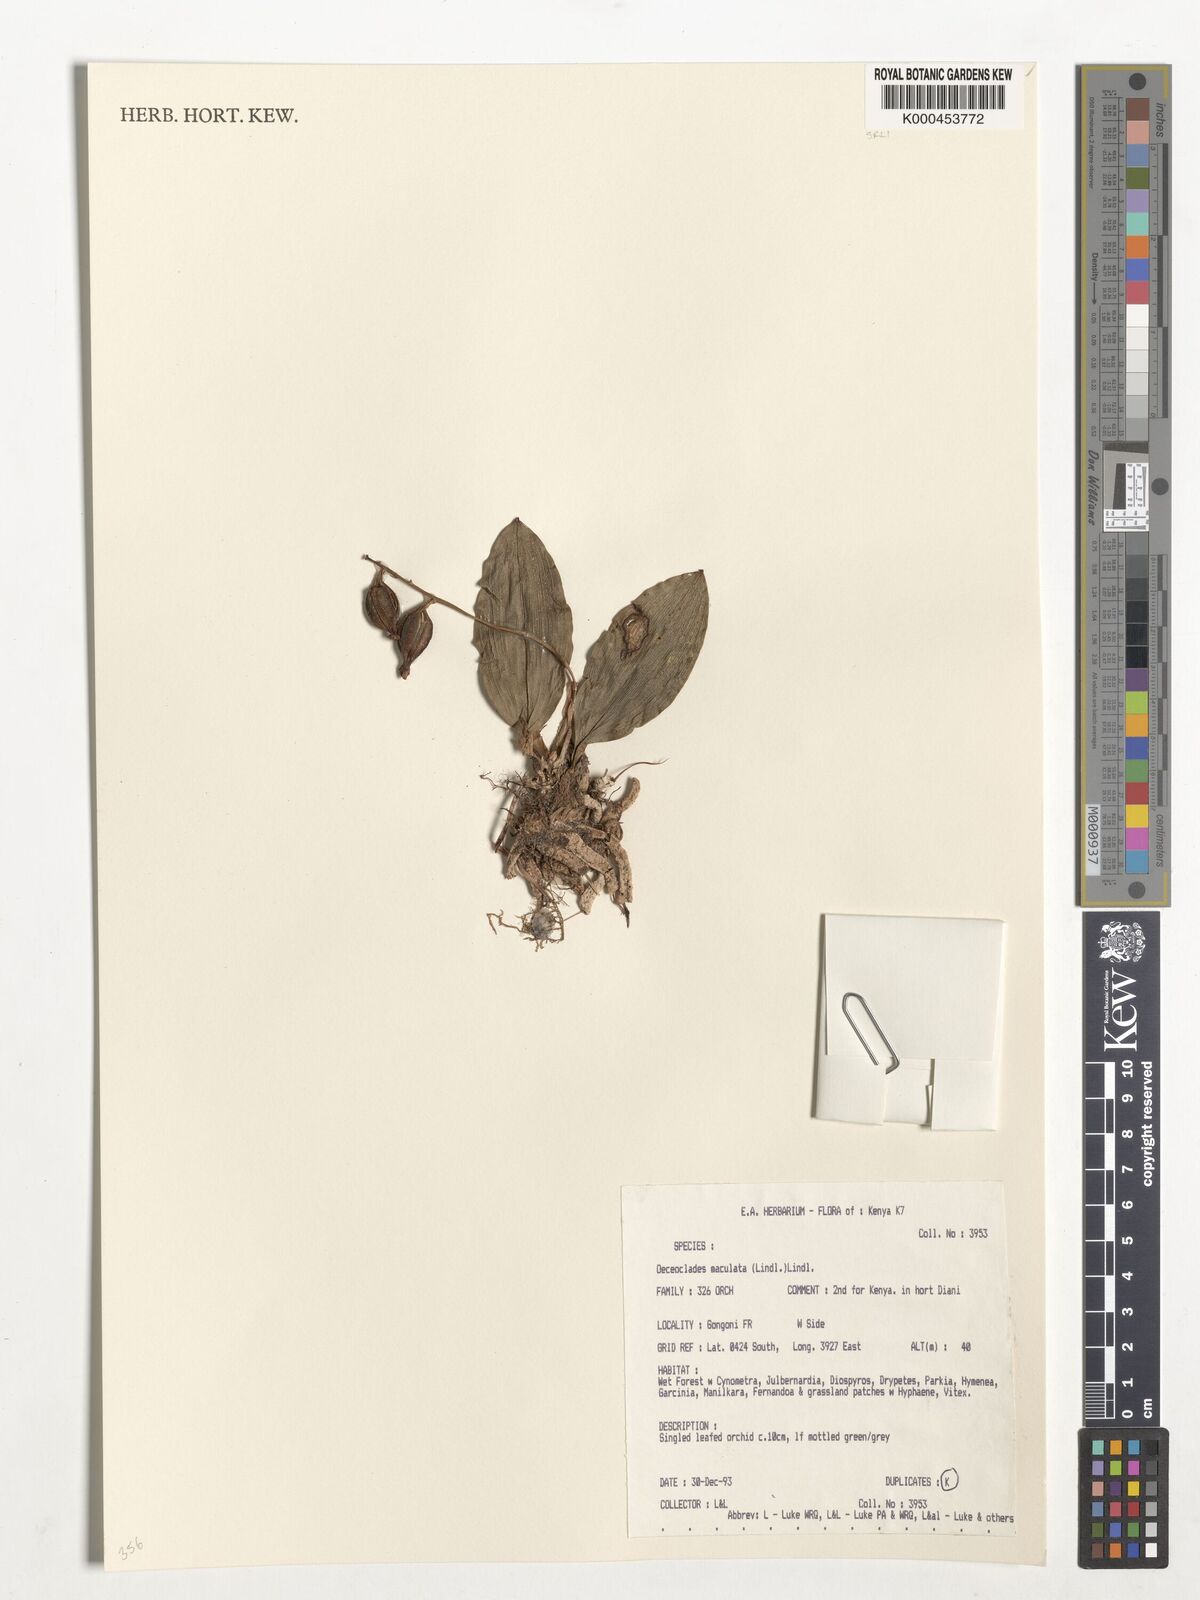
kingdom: Plantae
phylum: Tracheophyta
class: Liliopsida
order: Asparagales
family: Orchidaceae
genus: Eulophia
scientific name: Eulophia maculata
